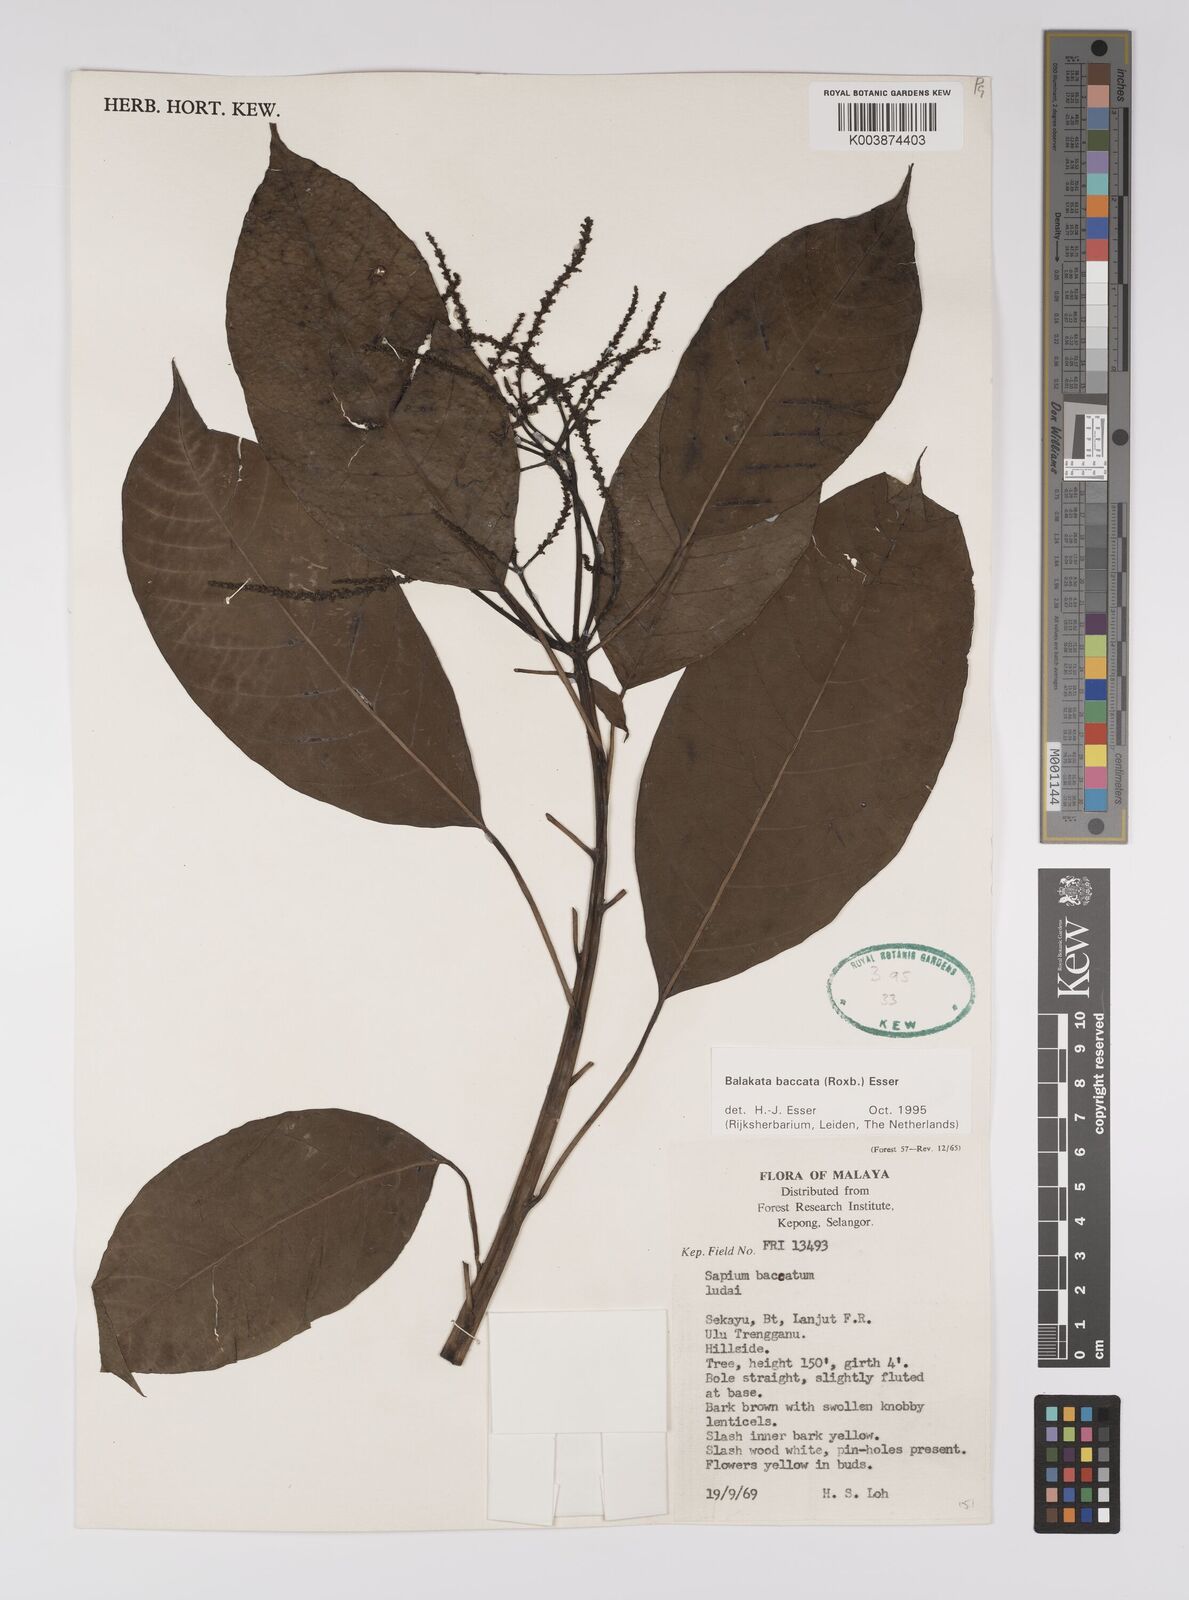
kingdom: Plantae
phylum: Tracheophyta
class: Magnoliopsida
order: Malpighiales
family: Euphorbiaceae
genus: Balakata
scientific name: Balakata baccata
